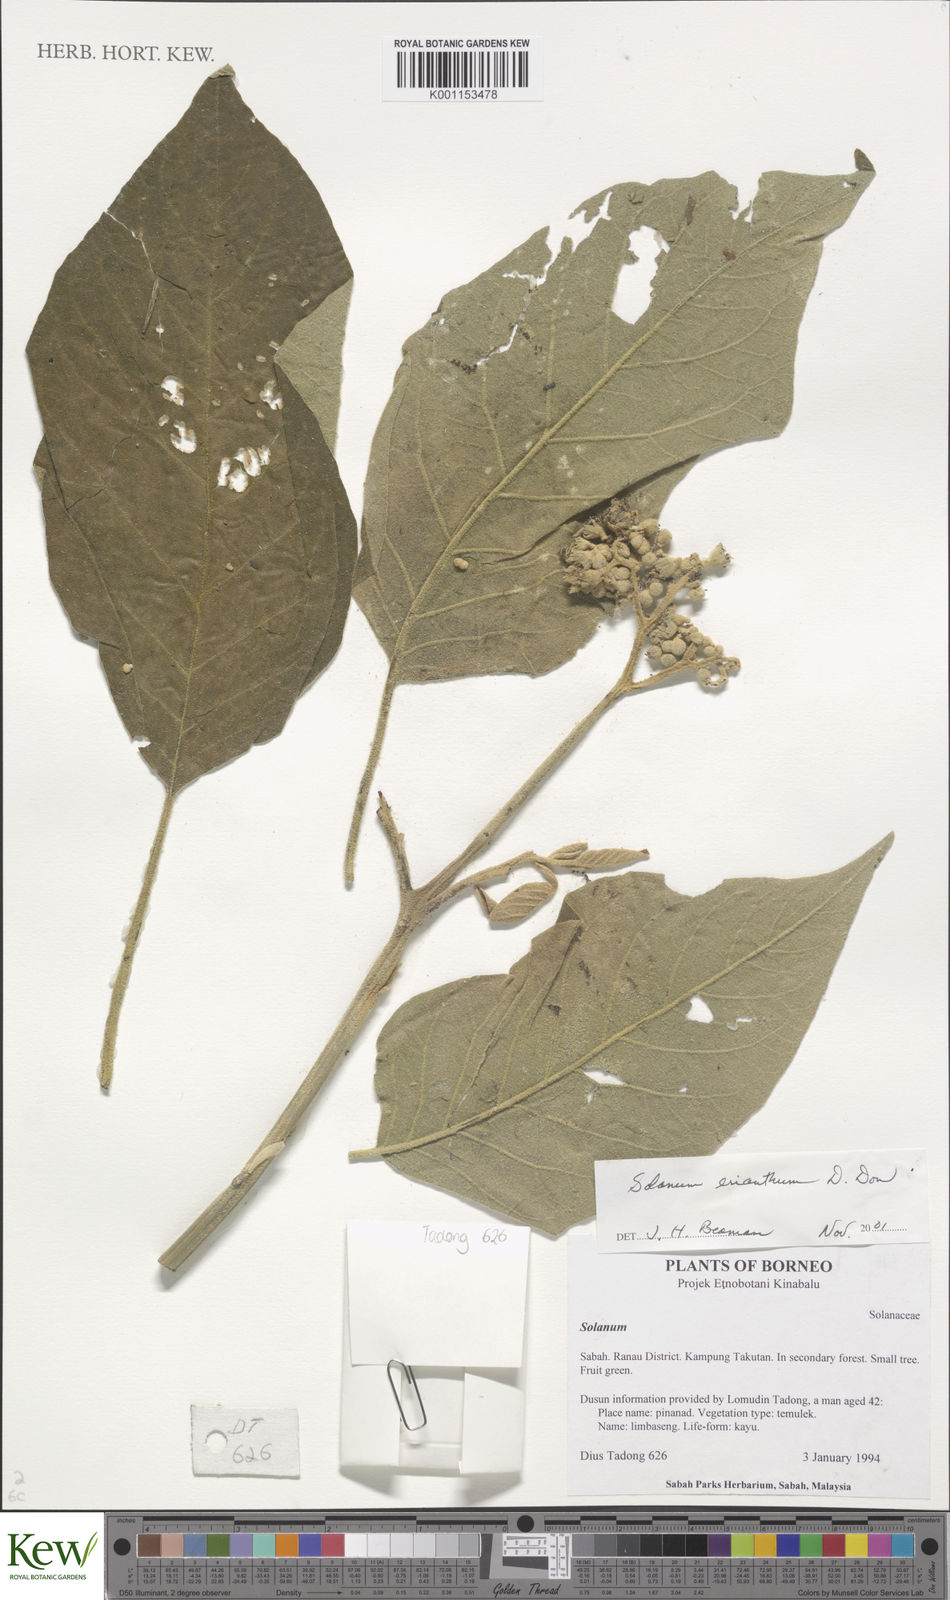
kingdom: Plantae
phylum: Tracheophyta
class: Magnoliopsida
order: Solanales
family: Solanaceae
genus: Solanum
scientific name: Solanum erianthum
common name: Tobacco-tree
